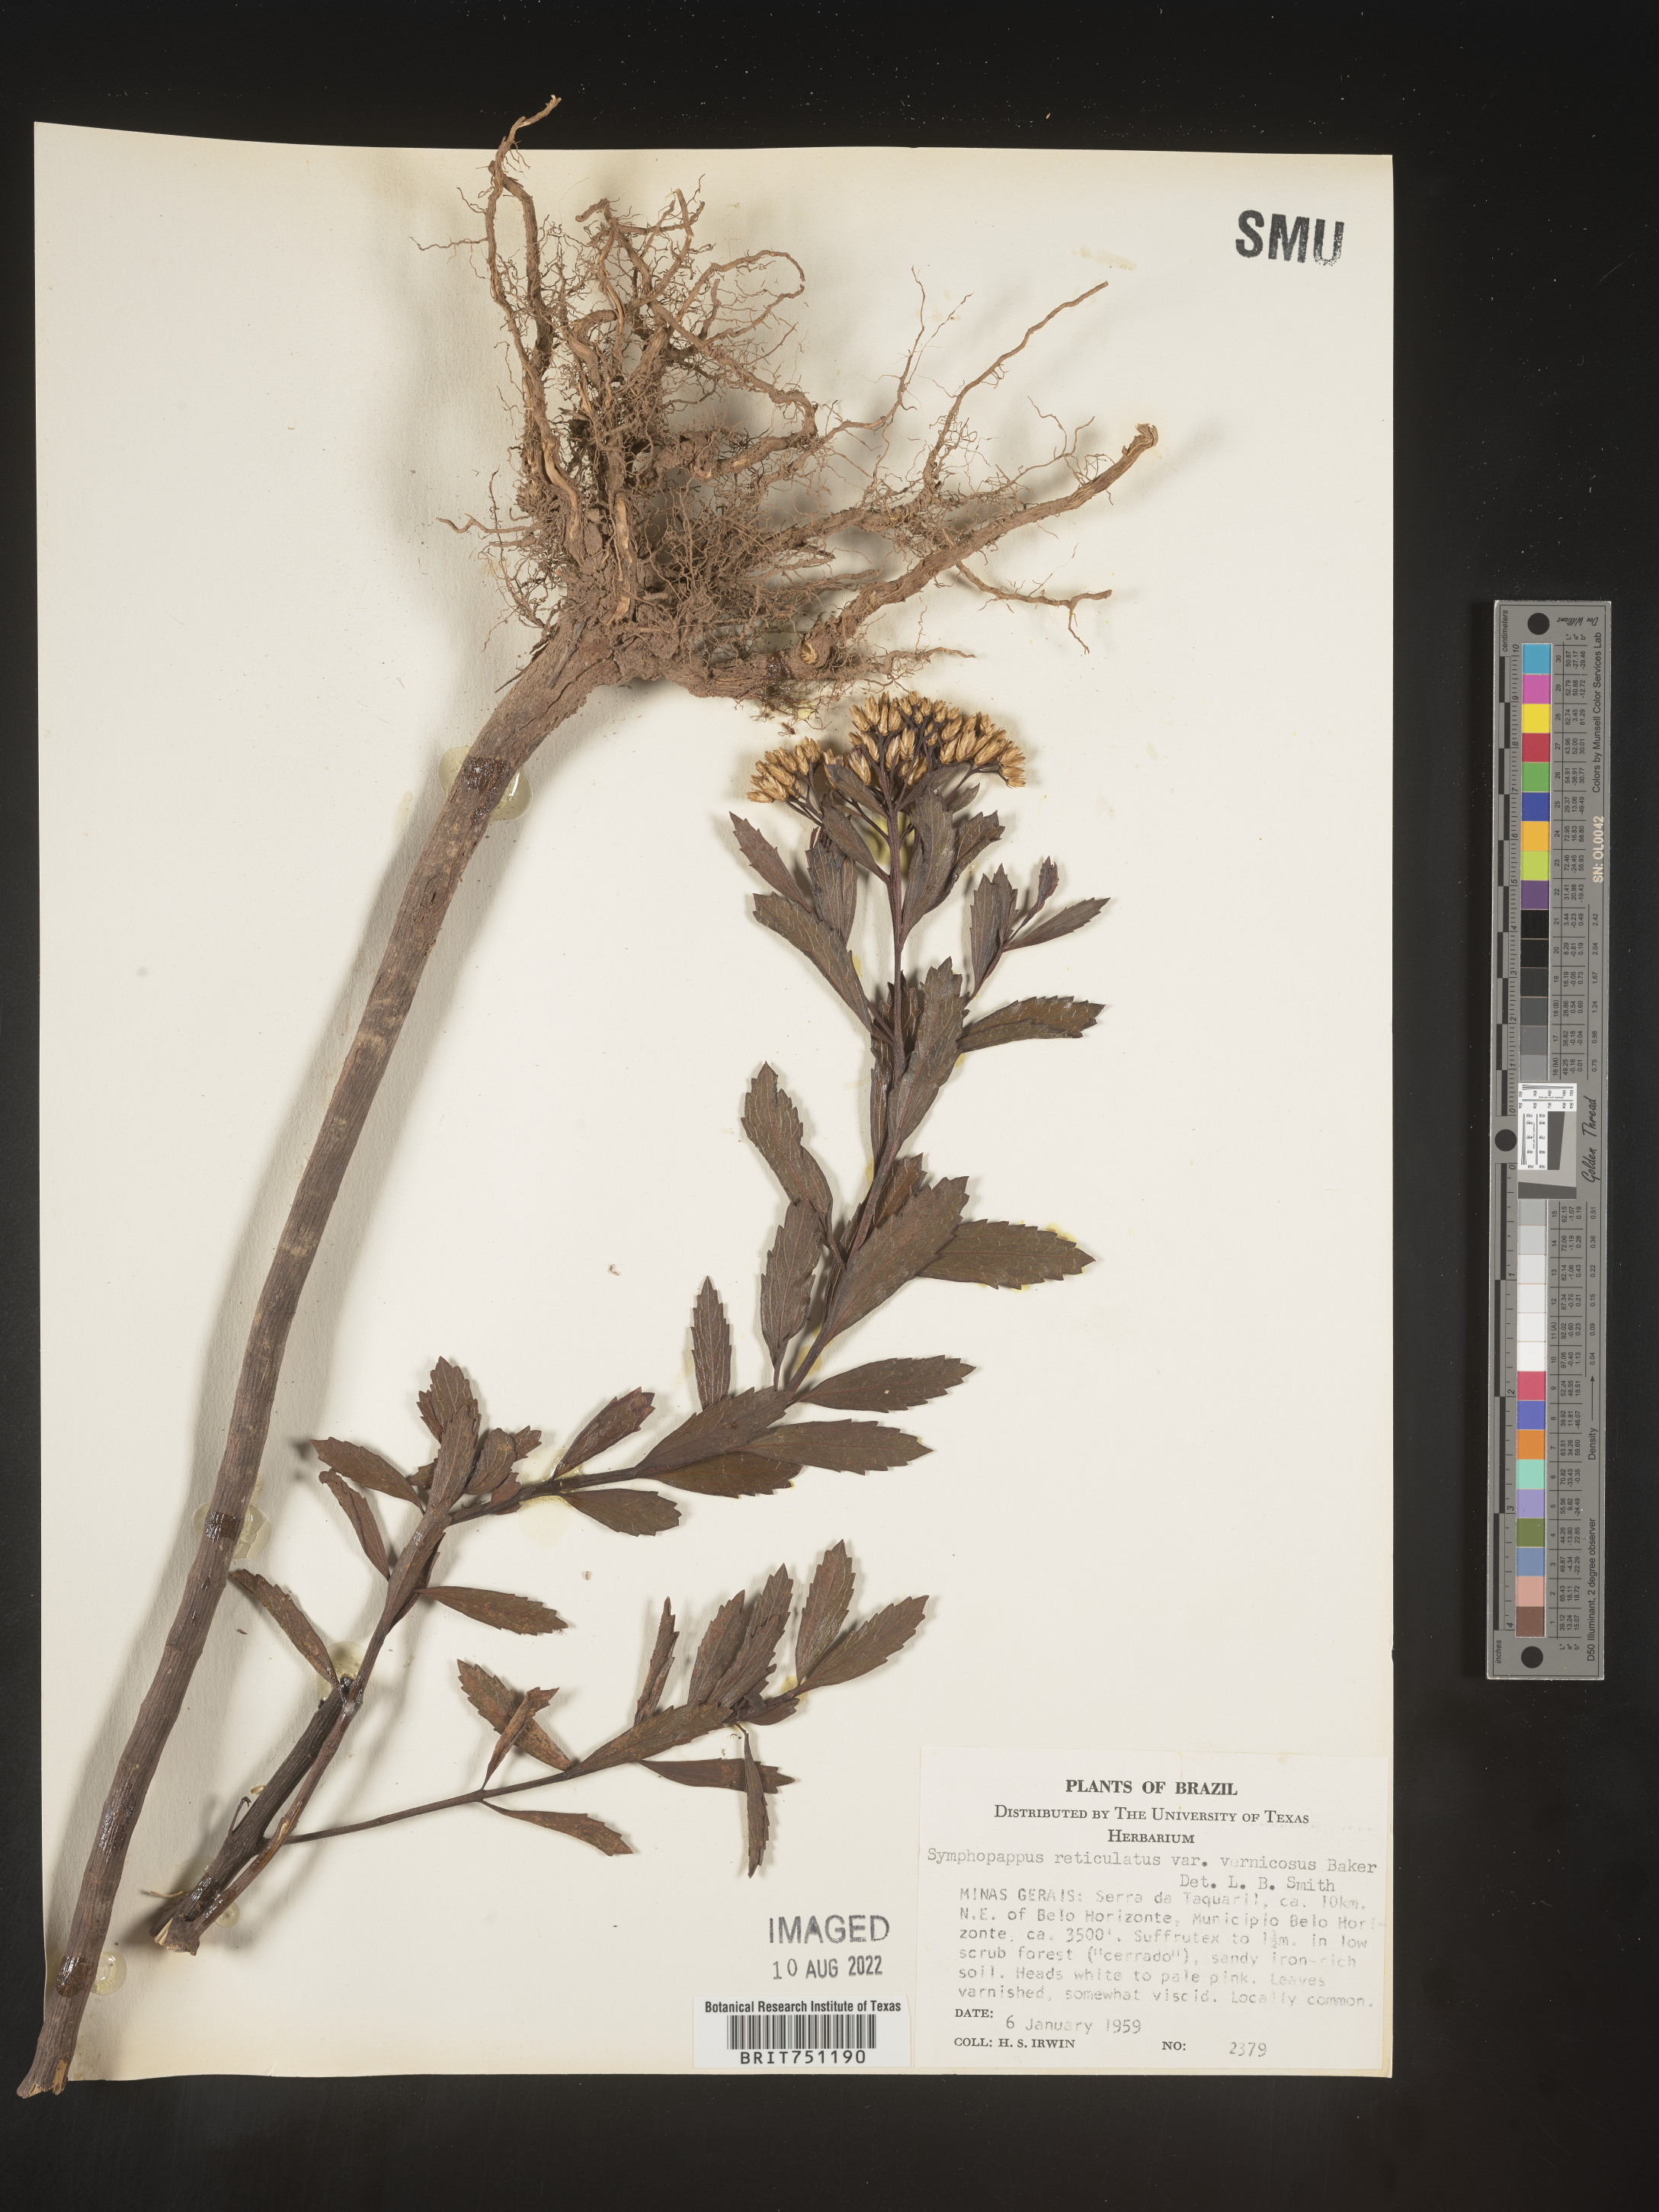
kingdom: Plantae
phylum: Tracheophyta
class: Magnoliopsida
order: Asterales
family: Asteraceae
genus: Symphyopappus
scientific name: Symphyopappus
